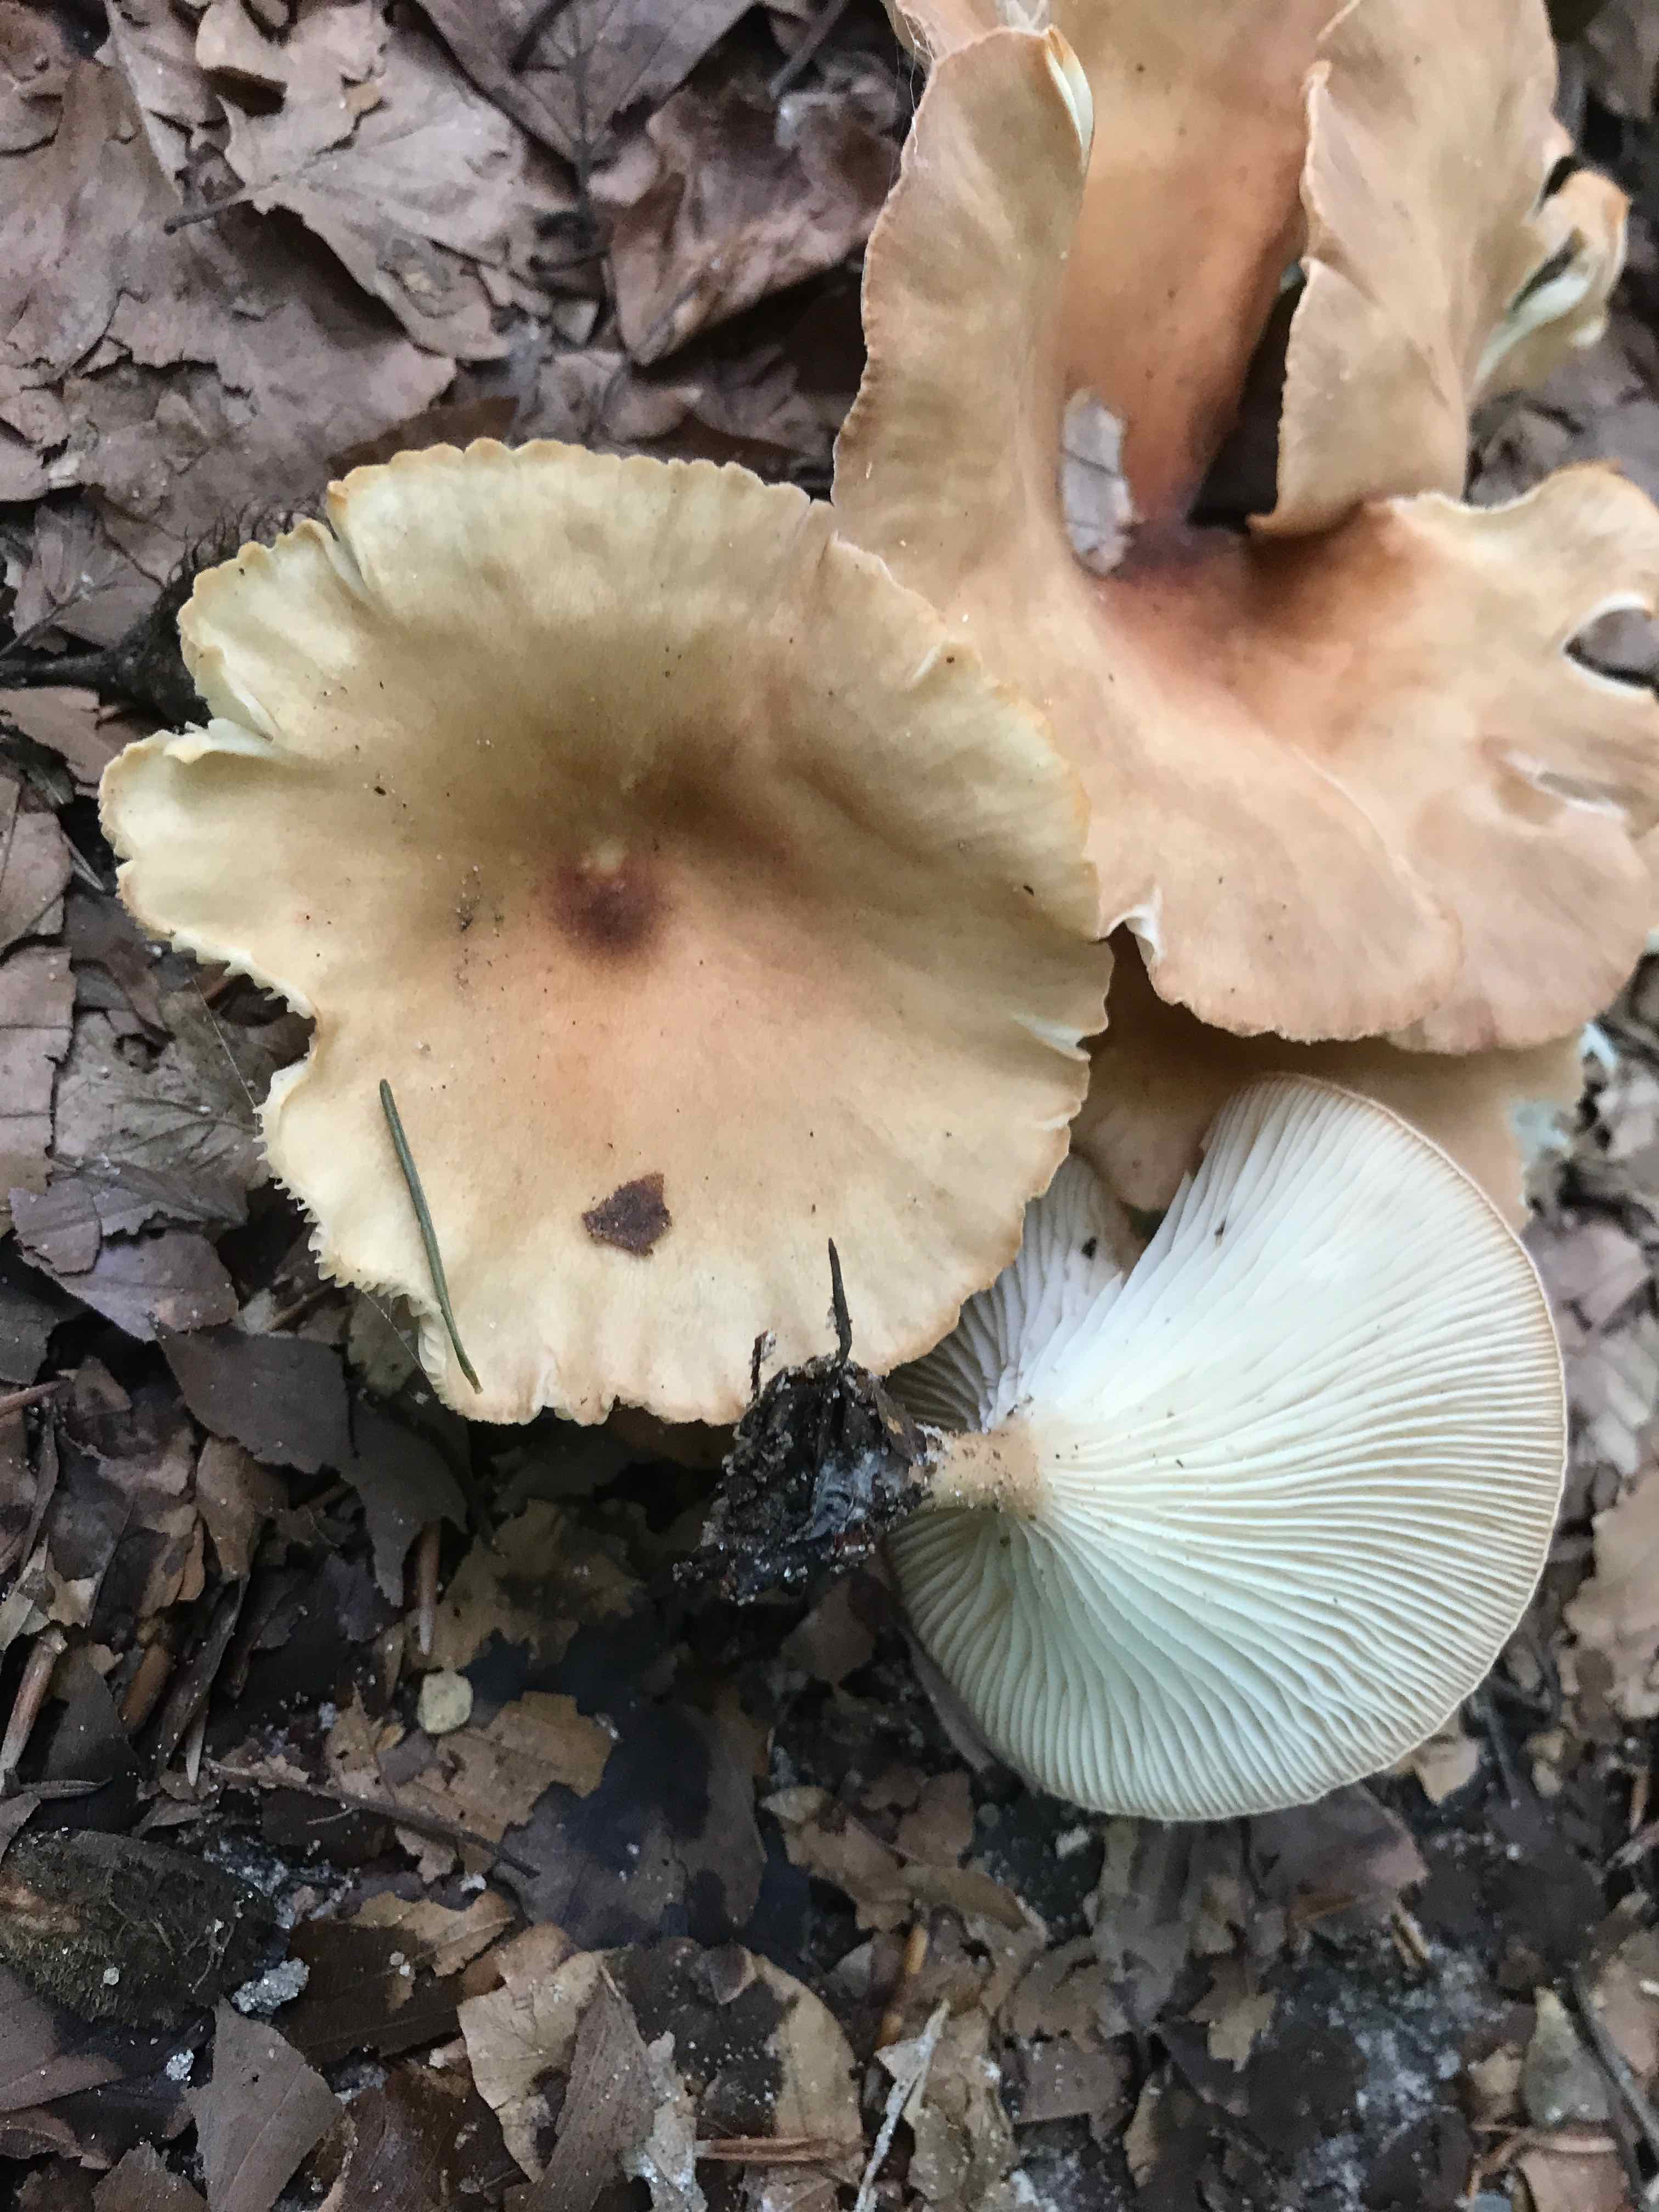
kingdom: Fungi
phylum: Basidiomycota
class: Agaricomycetes
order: Agaricales
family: Tricholomataceae
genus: Infundibulicybe
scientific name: Infundibulicybe gibba
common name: almindelig tragthat
